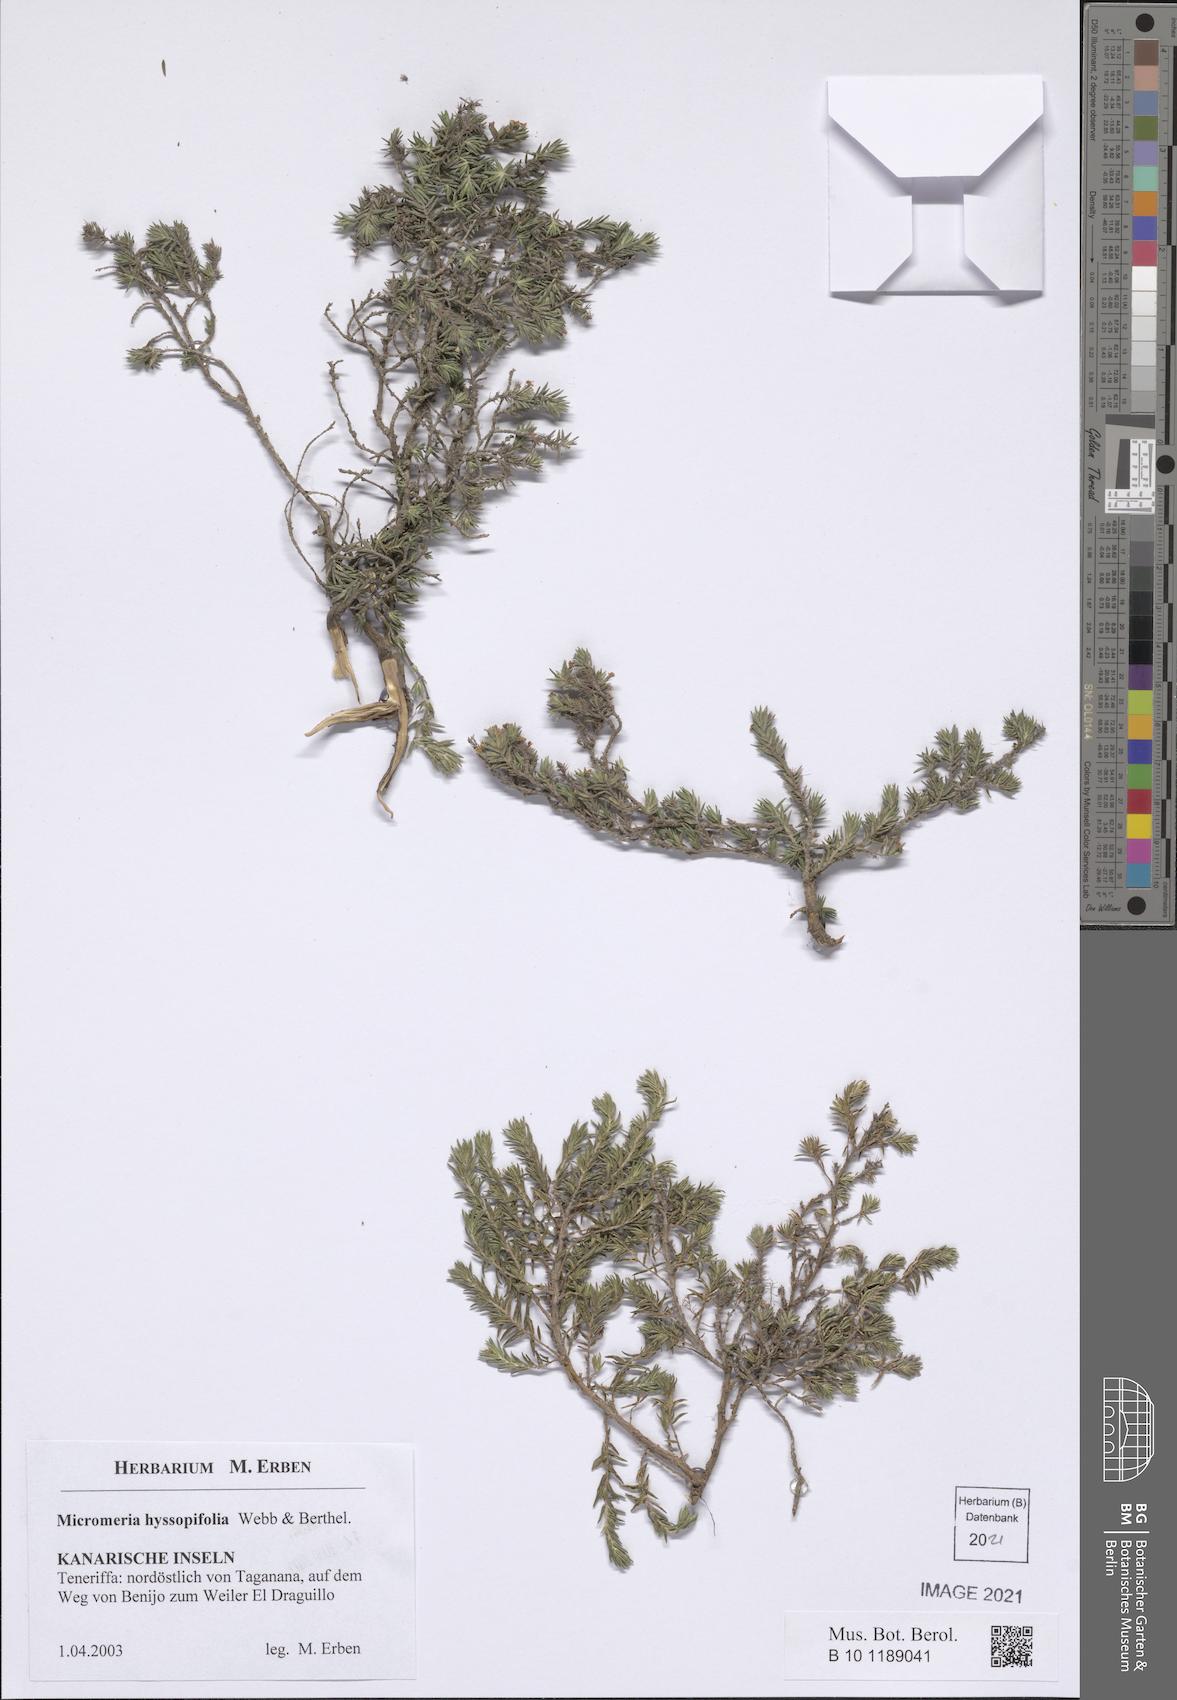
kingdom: Plantae
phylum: Tracheophyta
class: Magnoliopsida
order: Lamiales
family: Lamiaceae
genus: Micromeria
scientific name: Micromeria ericifolia
